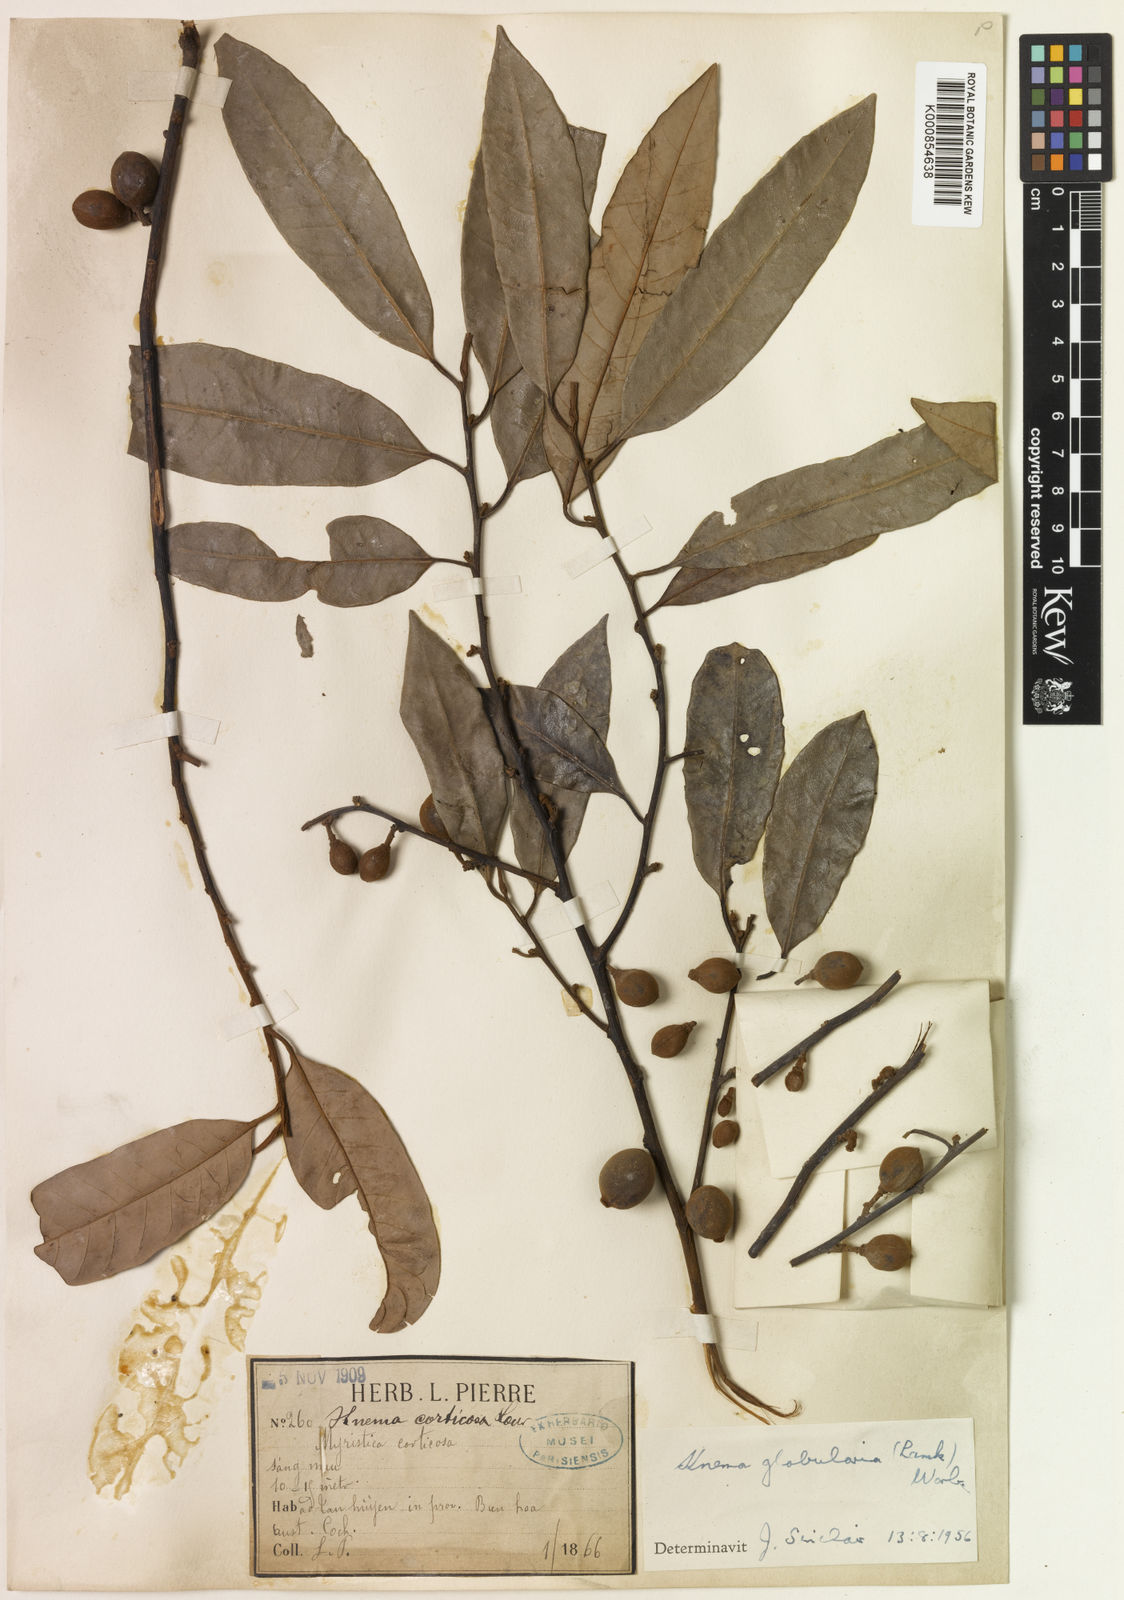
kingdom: Plantae
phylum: Tracheophyta
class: Magnoliopsida
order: Magnoliales
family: Myristicaceae
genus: Knema
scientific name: Knema globularia
